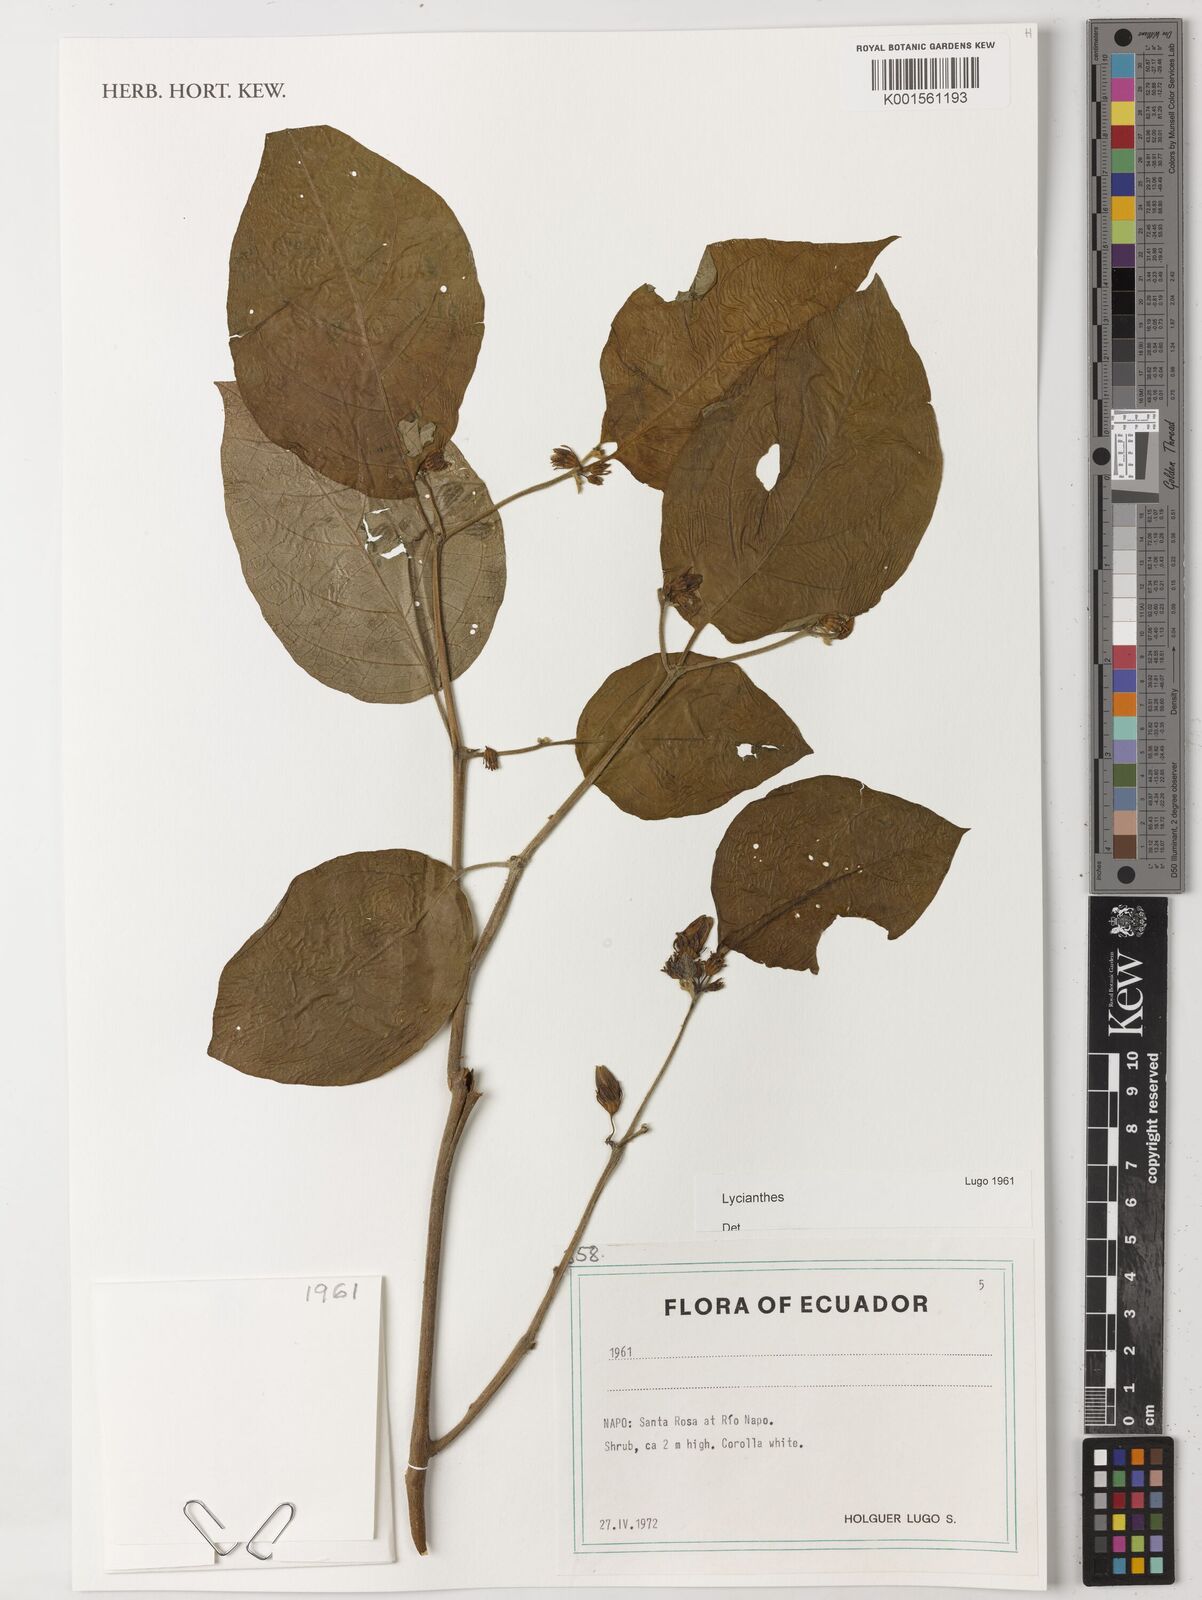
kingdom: Plantae
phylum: Tracheophyta
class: Magnoliopsida
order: Solanales
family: Solanaceae
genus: Lycianthes
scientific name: Lycianthes
